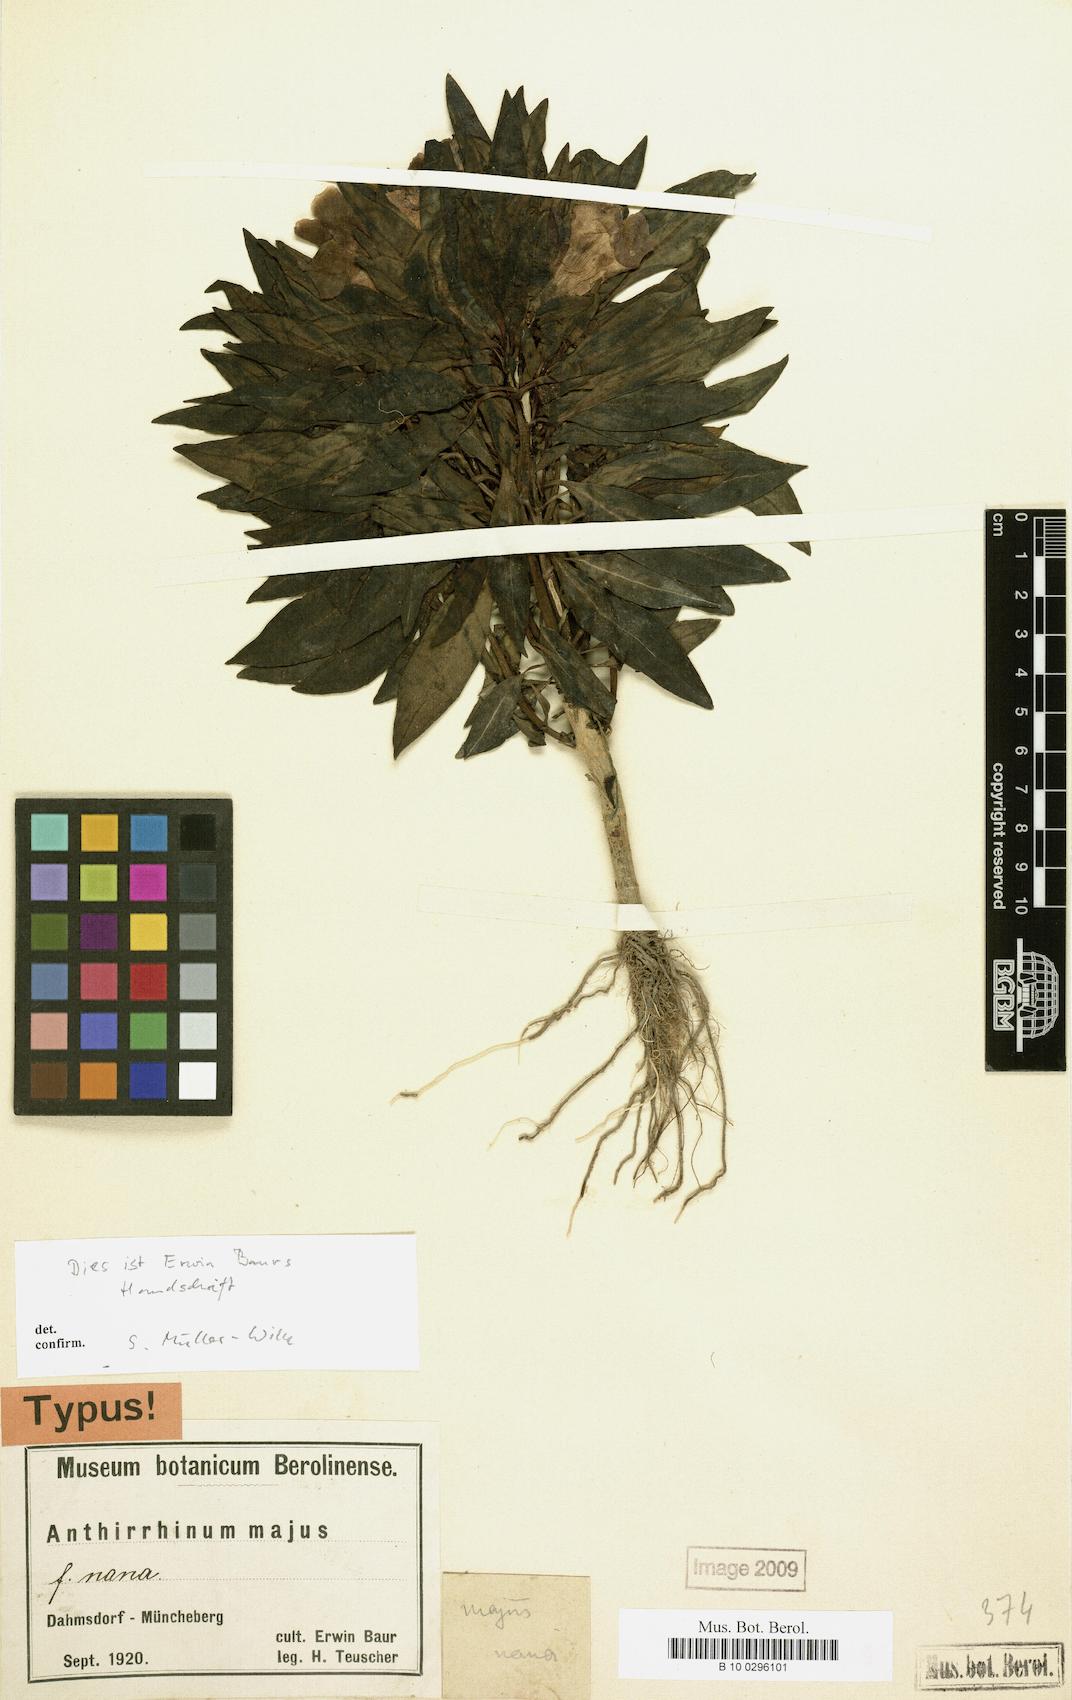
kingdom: Plantae
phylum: Tracheophyta
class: Magnoliopsida
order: Lamiales
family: Plantaginaceae
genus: Antirrhinum
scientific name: Antirrhinum majus
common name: Snapdragon
